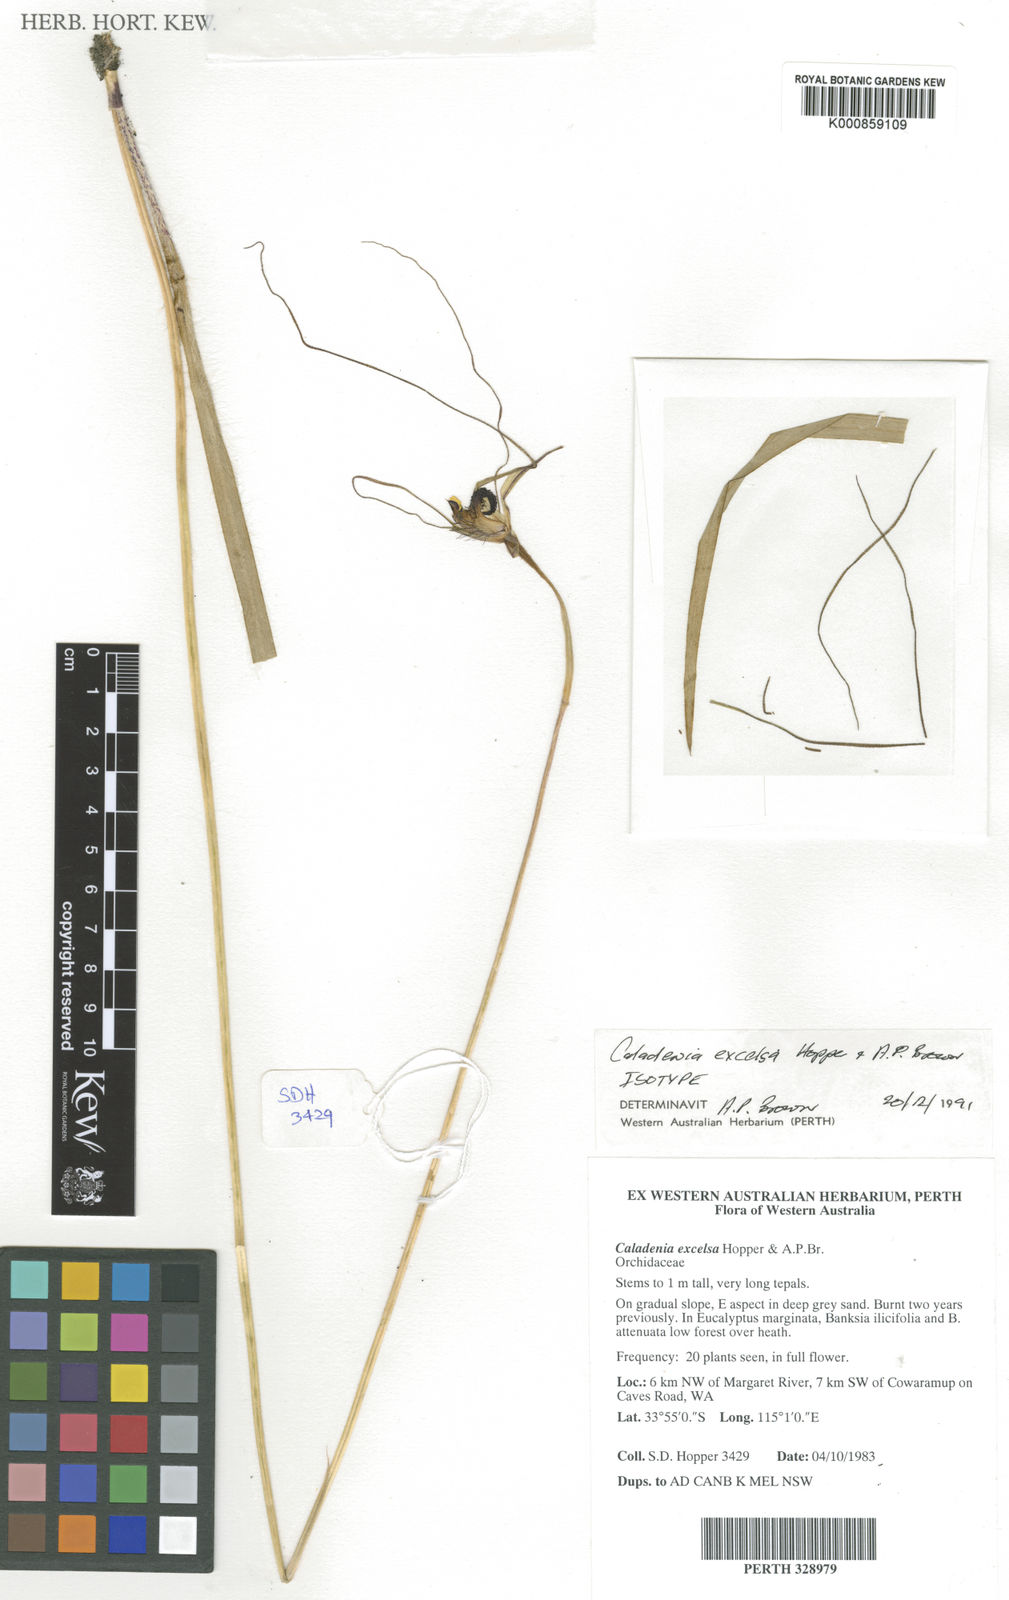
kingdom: Plantae
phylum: Tracheophyta
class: Liliopsida
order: Asparagales
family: Orchidaceae
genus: Caladenia
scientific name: Caladenia excelsa
